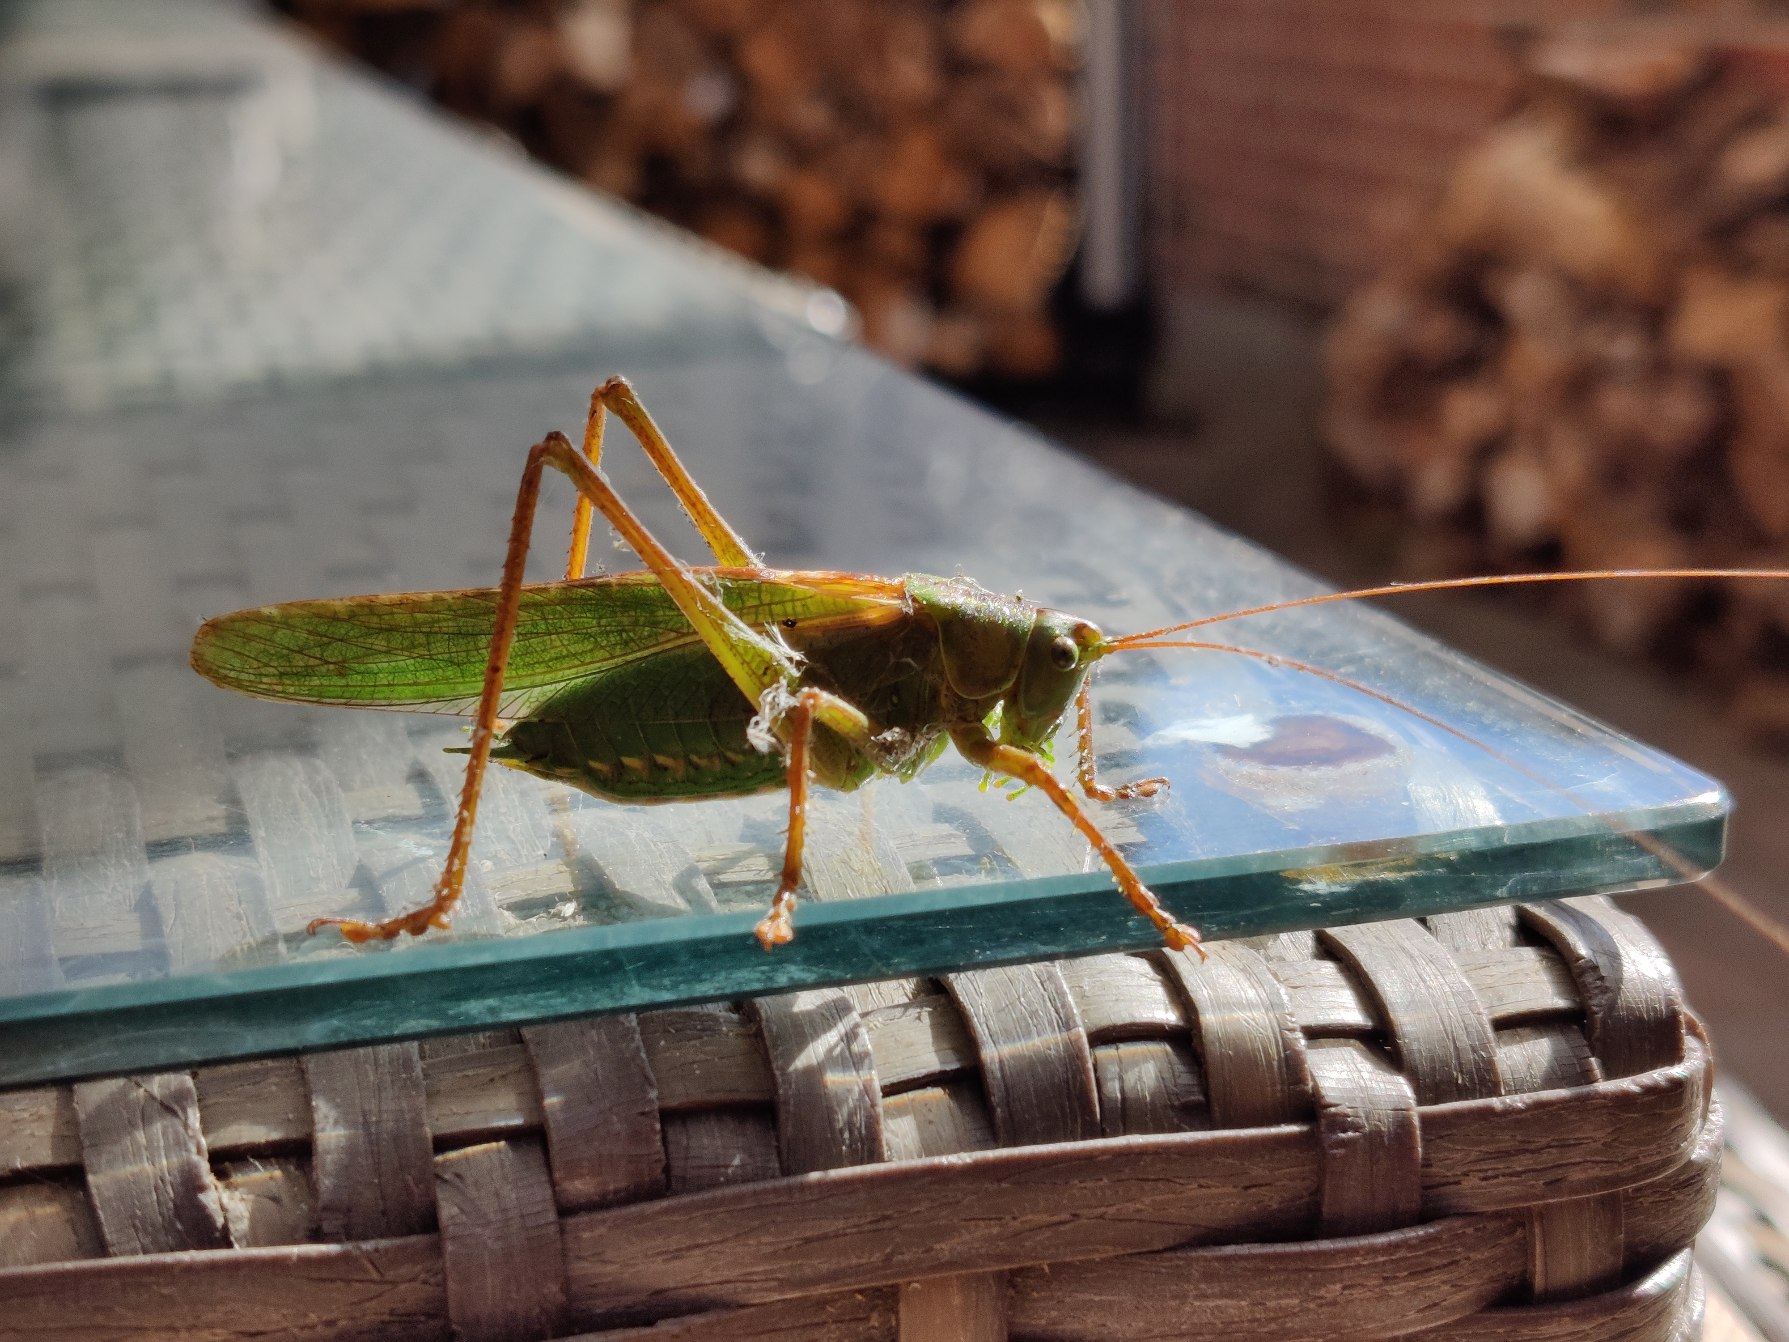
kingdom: Animalia
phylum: Arthropoda
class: Insecta
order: Orthoptera
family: Tettigoniidae
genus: Tettigonia
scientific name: Tettigonia viridissima
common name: Stor grøn løvgræshoppe
